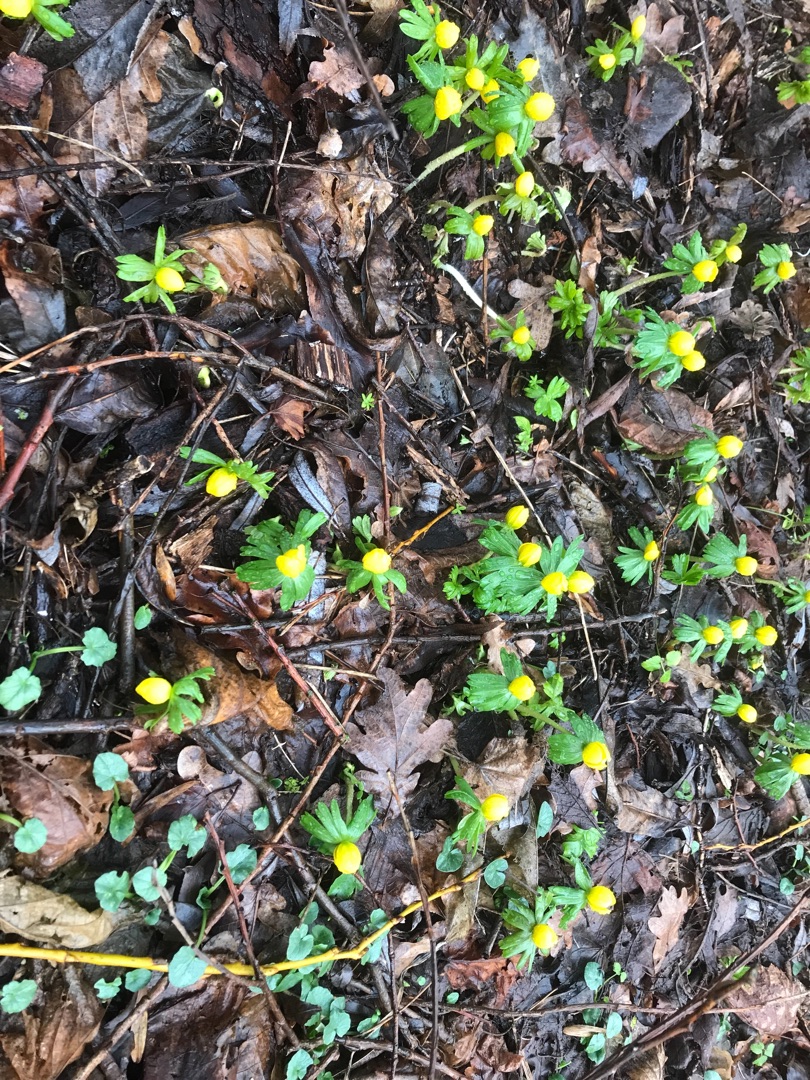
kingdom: Plantae
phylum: Tracheophyta
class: Magnoliopsida
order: Ranunculales
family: Ranunculaceae
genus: Eranthis
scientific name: Eranthis hyemalis
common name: Erantis
